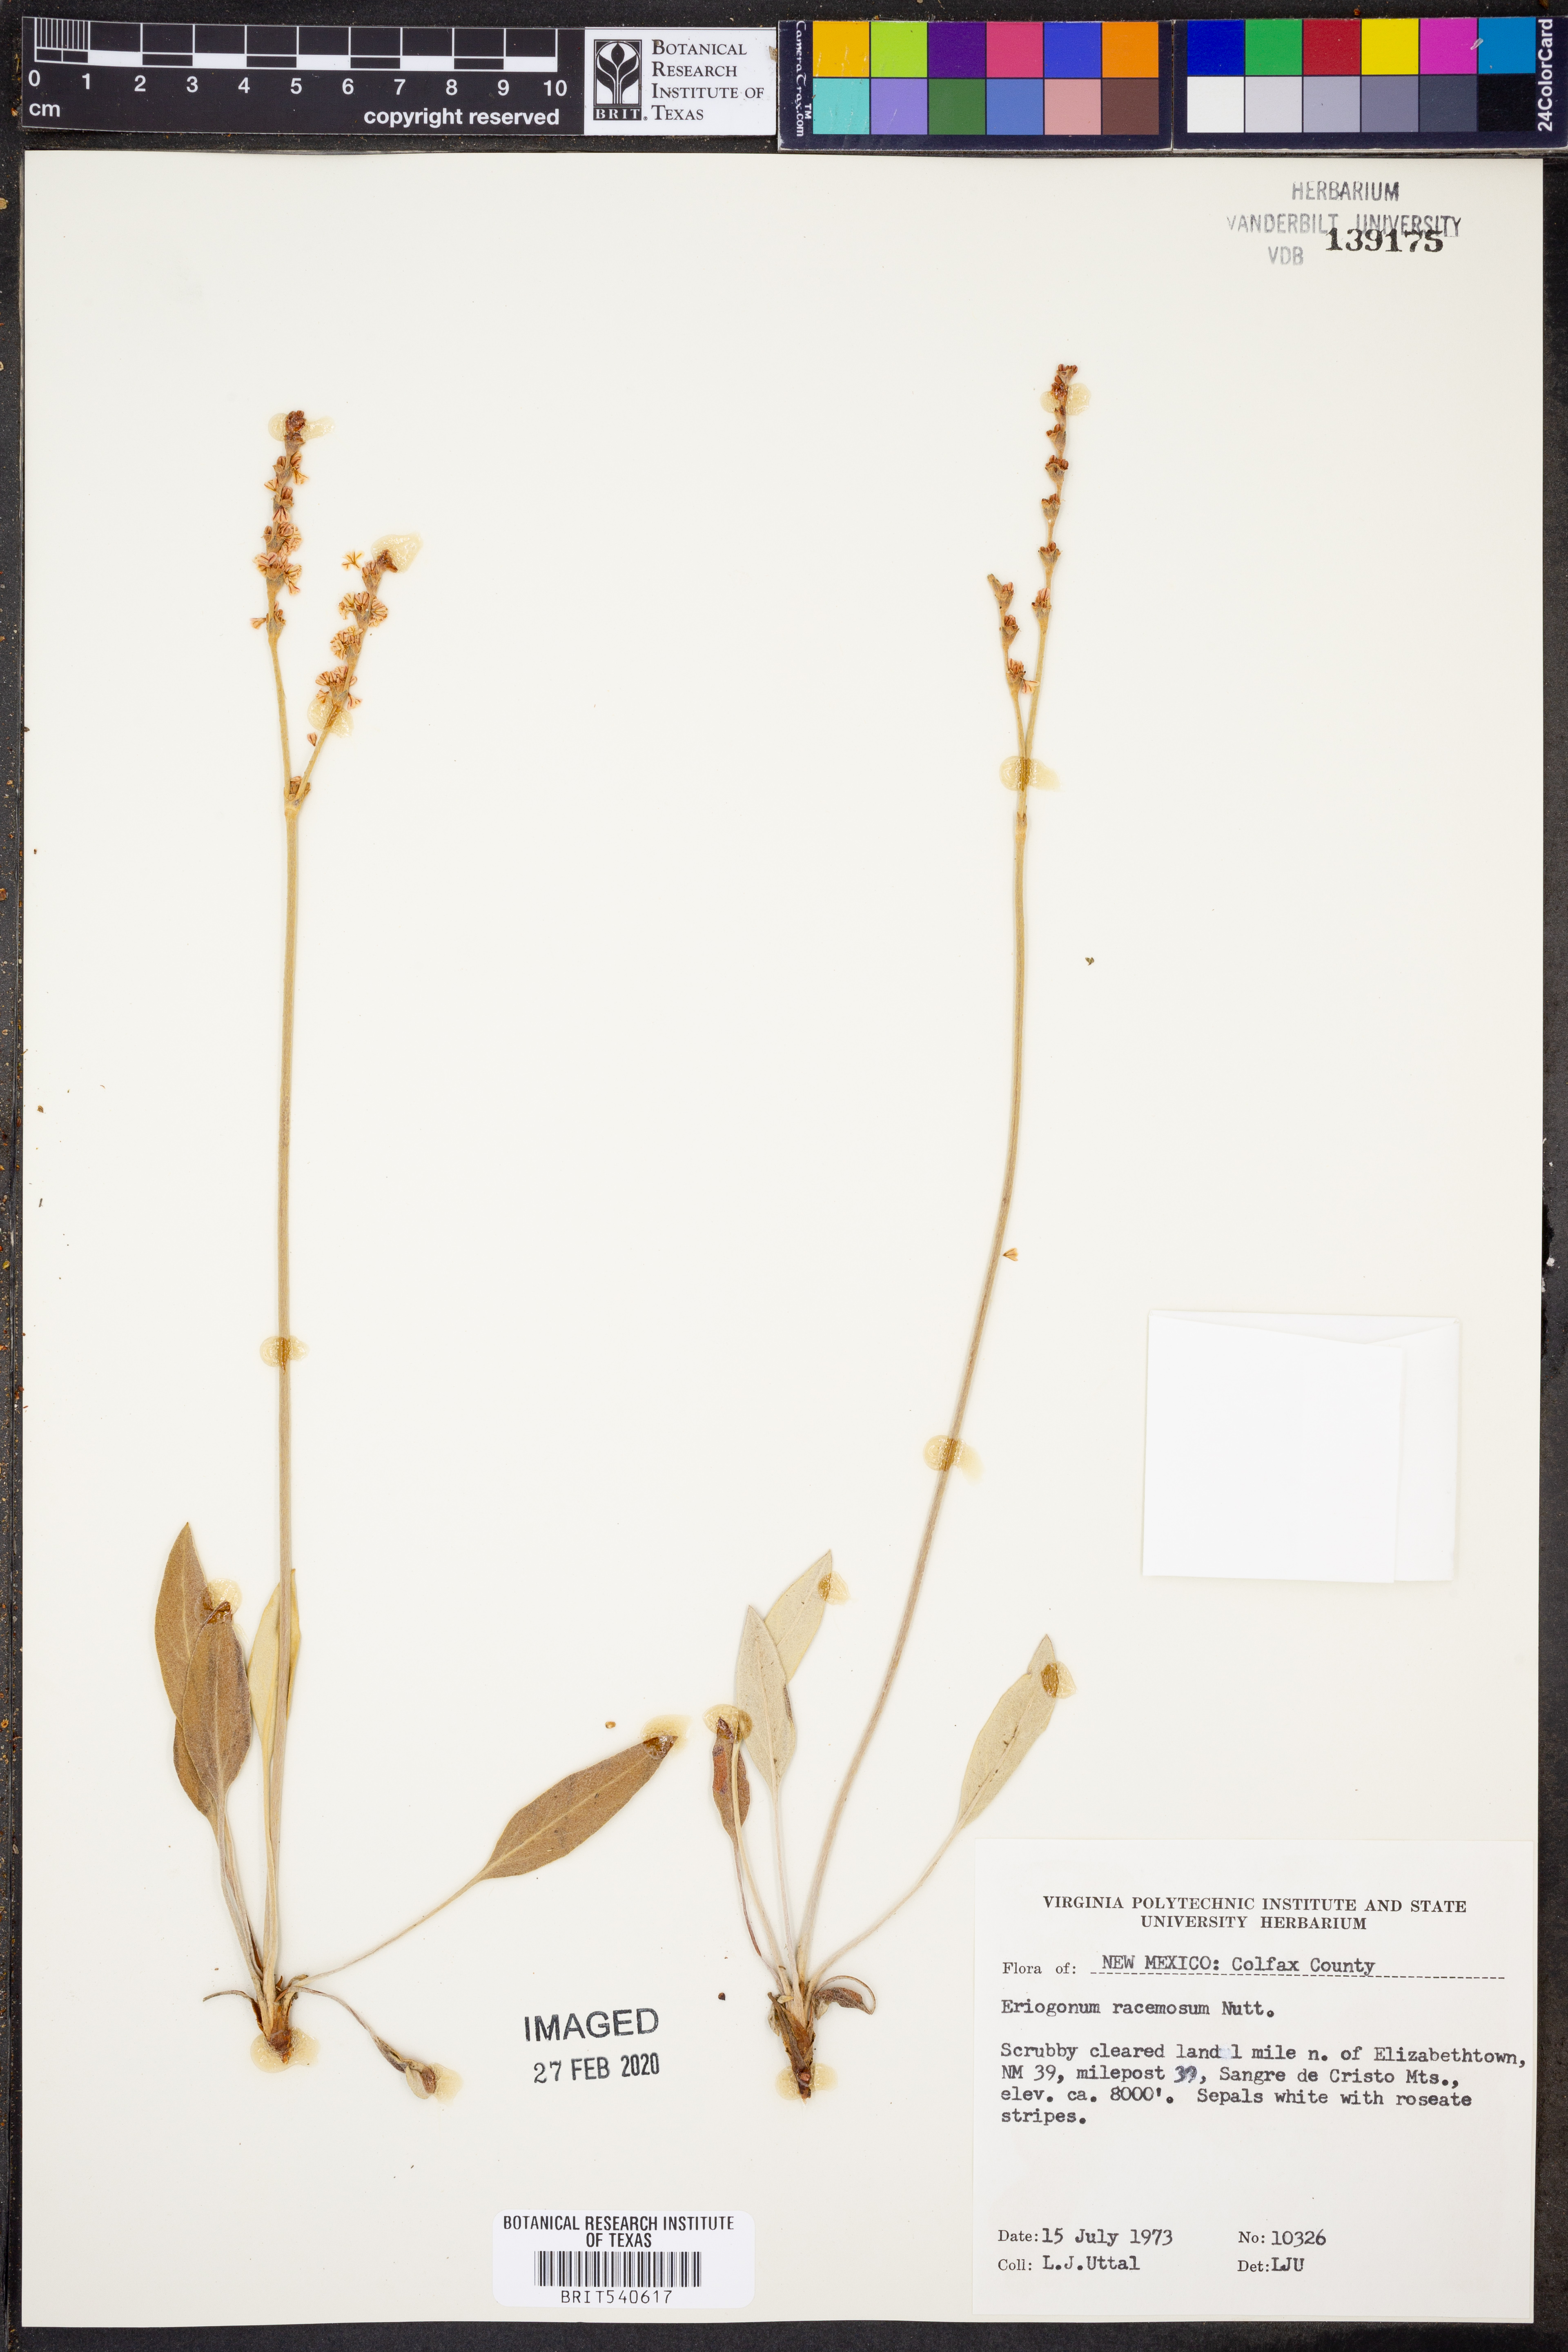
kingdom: Plantae
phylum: Tracheophyta
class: Magnoliopsida
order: Caryophyllales
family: Polygonaceae
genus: Eriogonum
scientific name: Eriogonum racemosum
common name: Redroot wild buckwheat
